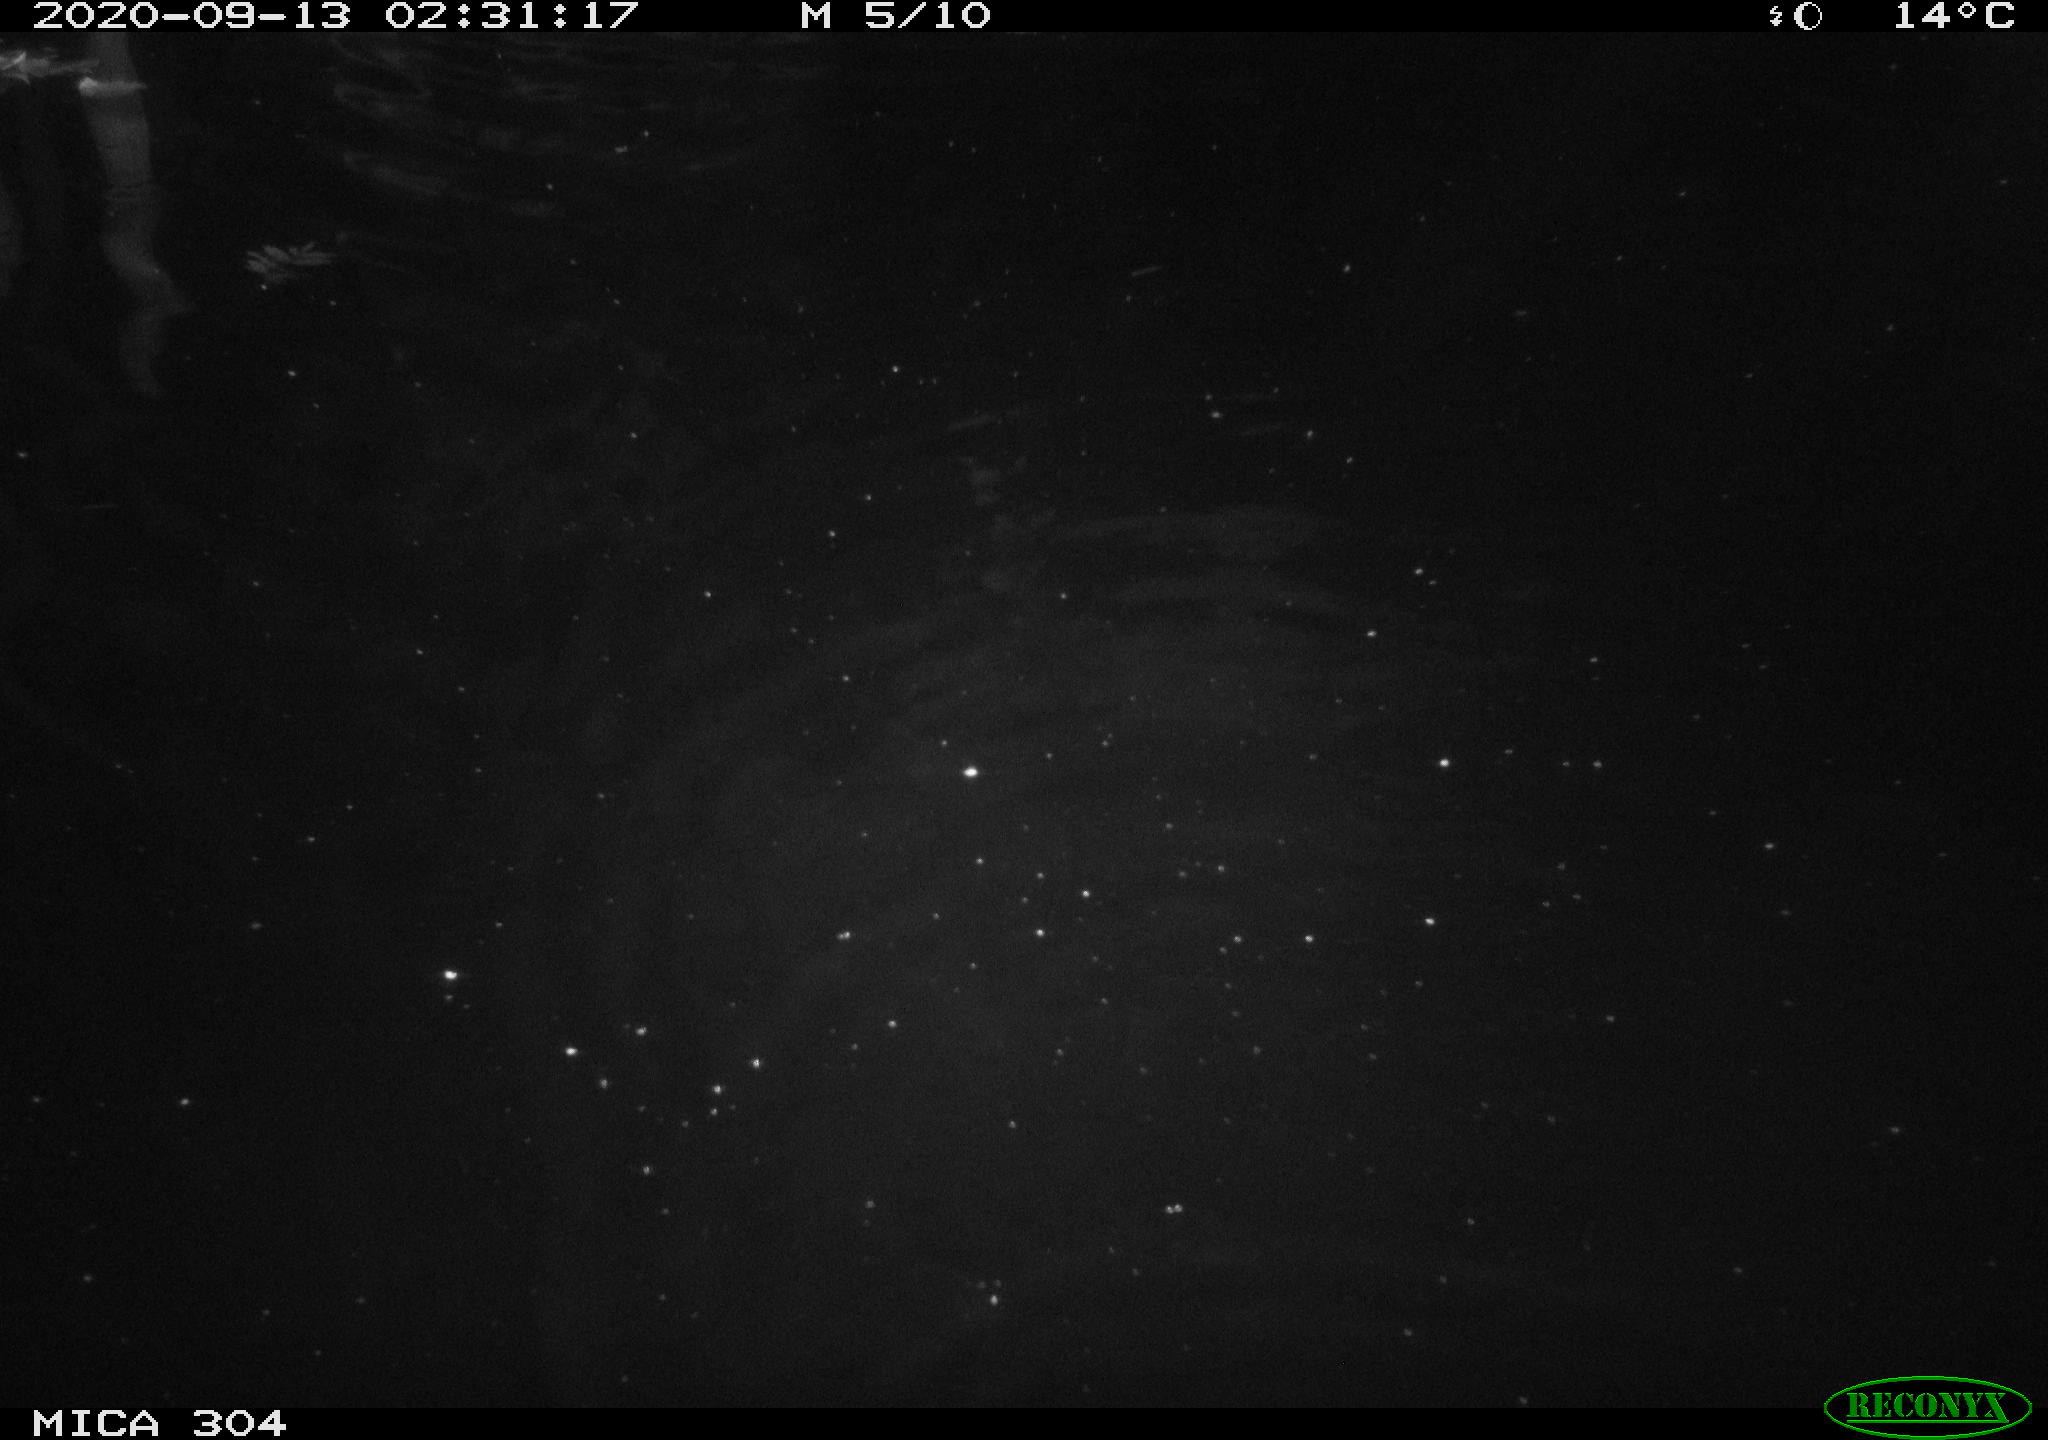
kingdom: Animalia
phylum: Chordata
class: Mammalia
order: Rodentia
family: Cricetidae
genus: Ondatra
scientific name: Ondatra zibethicus
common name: Muskrat
